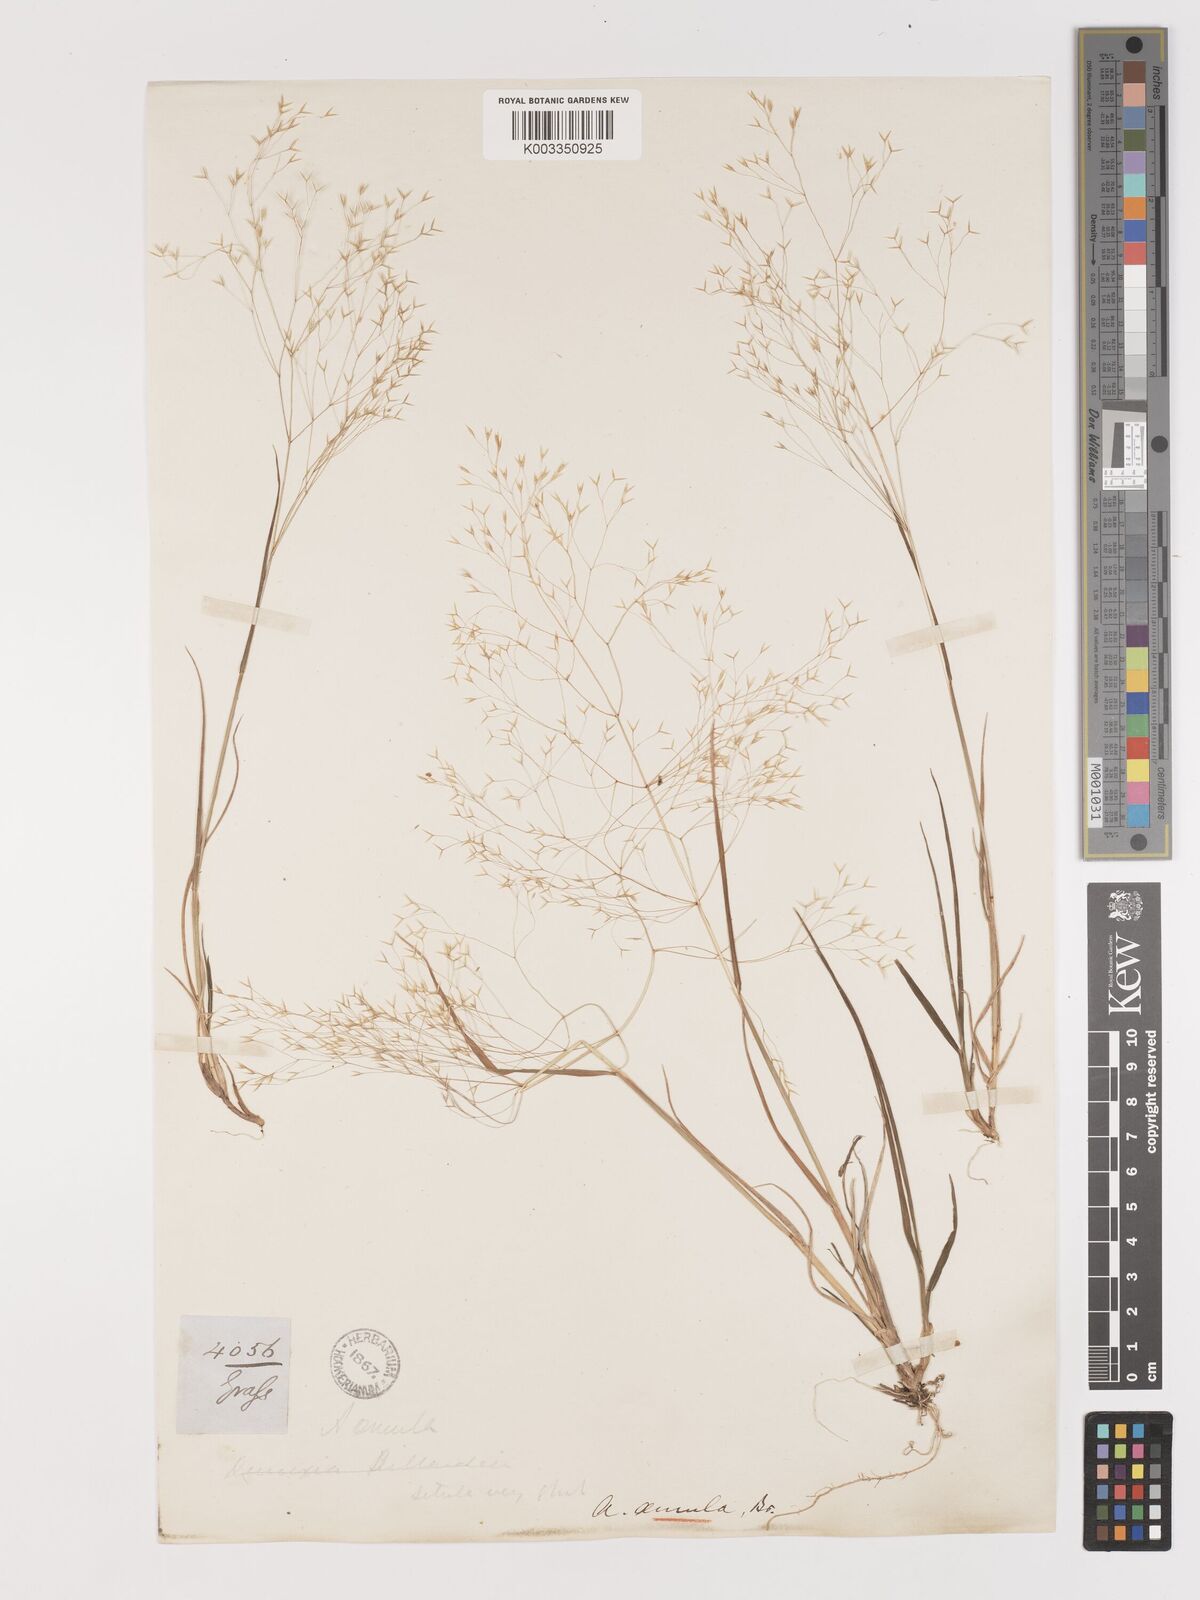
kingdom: Plantae
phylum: Tracheophyta
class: Liliopsida
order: Poales
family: Poaceae
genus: Lachnagrostis
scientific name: Lachnagrostis striata
